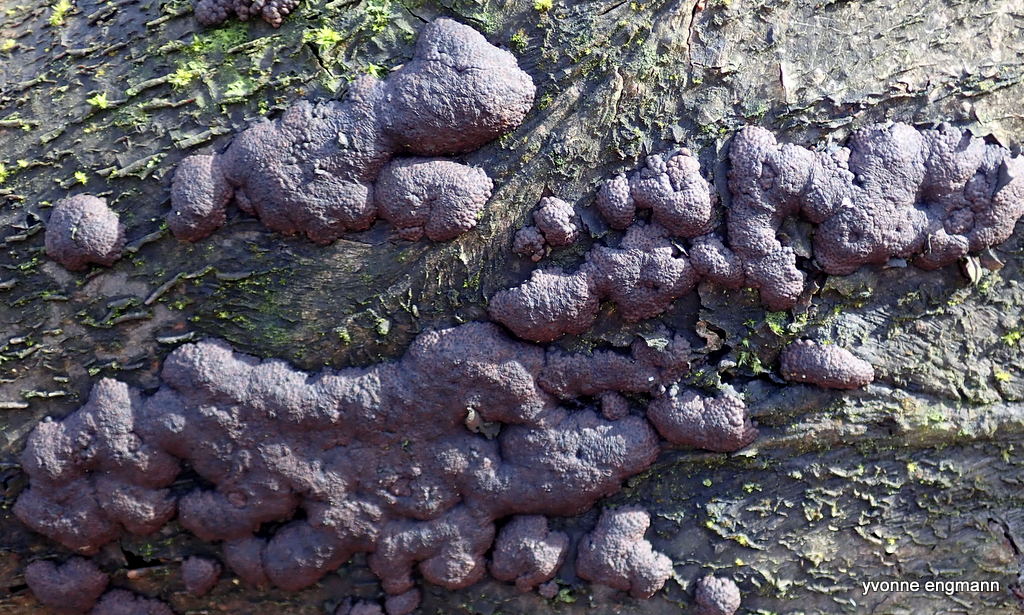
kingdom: Fungi
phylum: Ascomycota
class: Sordariomycetes
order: Xylariales
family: Hypoxylaceae
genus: Jackrogersella
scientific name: Jackrogersella cohaerens
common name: sammenflydende kulbær
